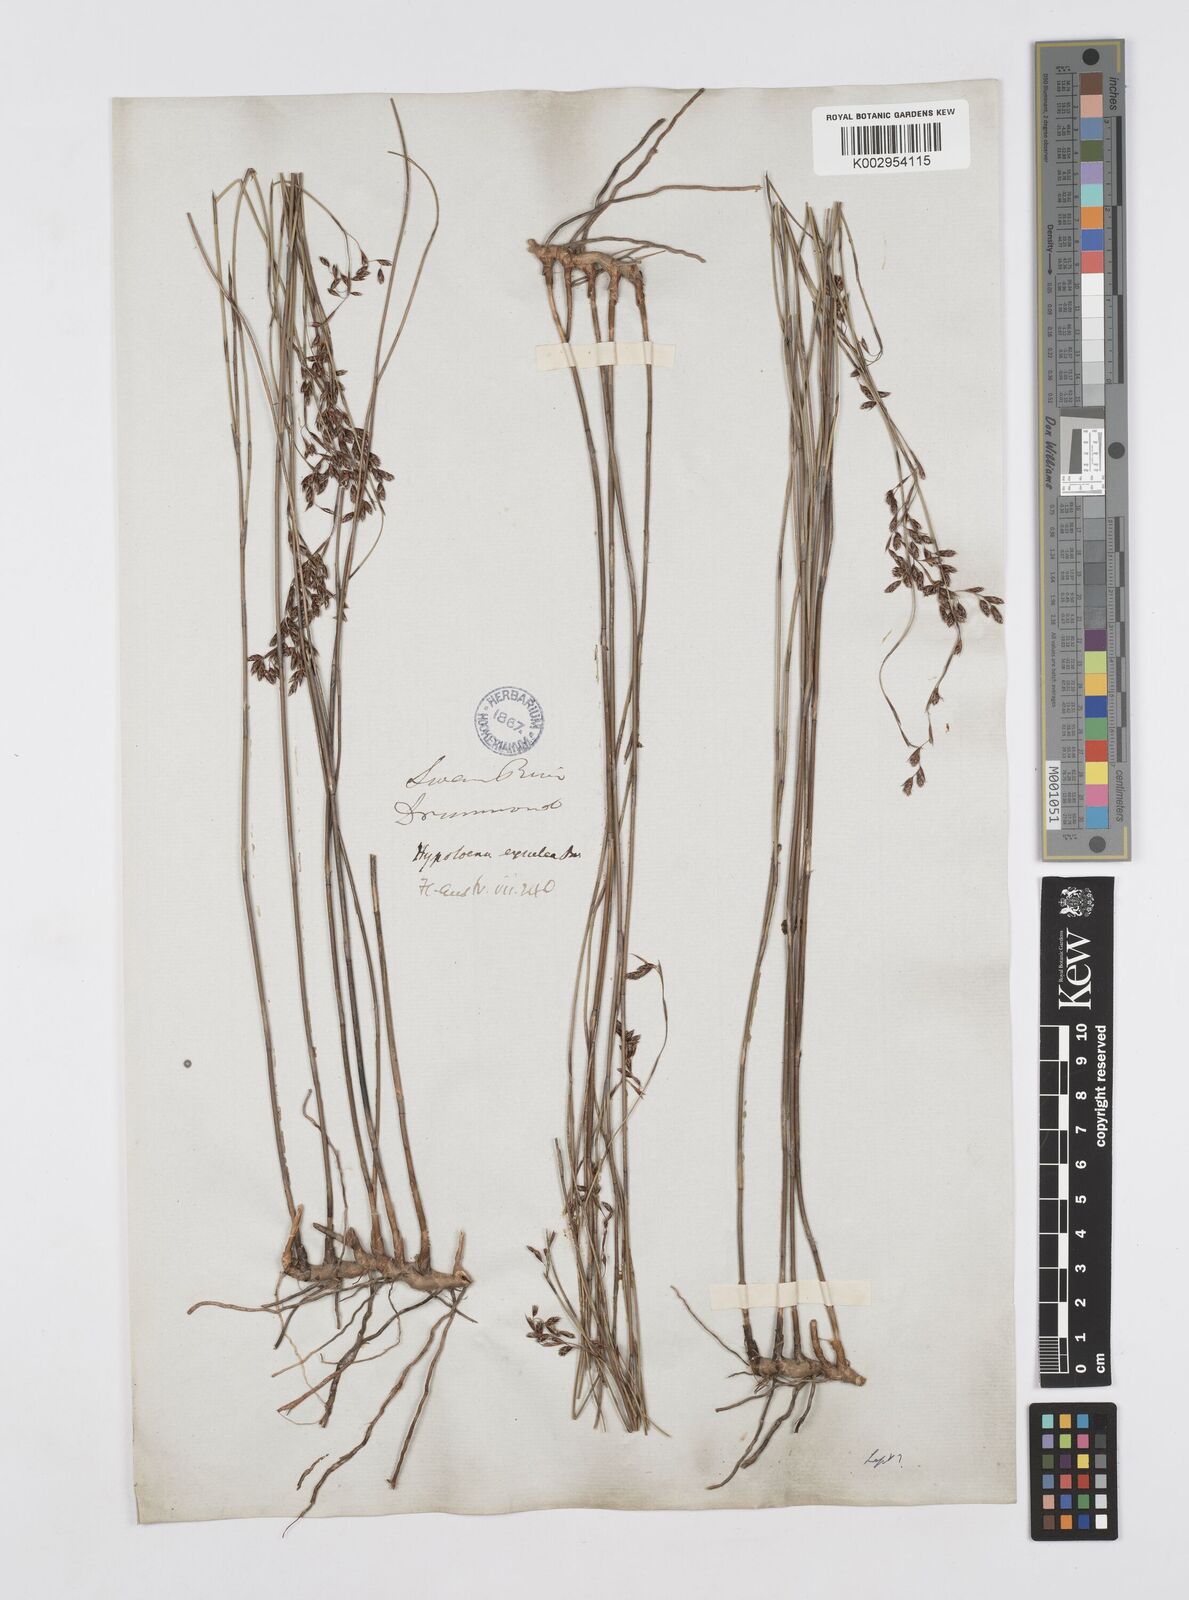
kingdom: Plantae
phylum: Tracheophyta
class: Liliopsida
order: Poales
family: Restionaceae
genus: Leptocarpus
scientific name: Leptocarpus tenax
